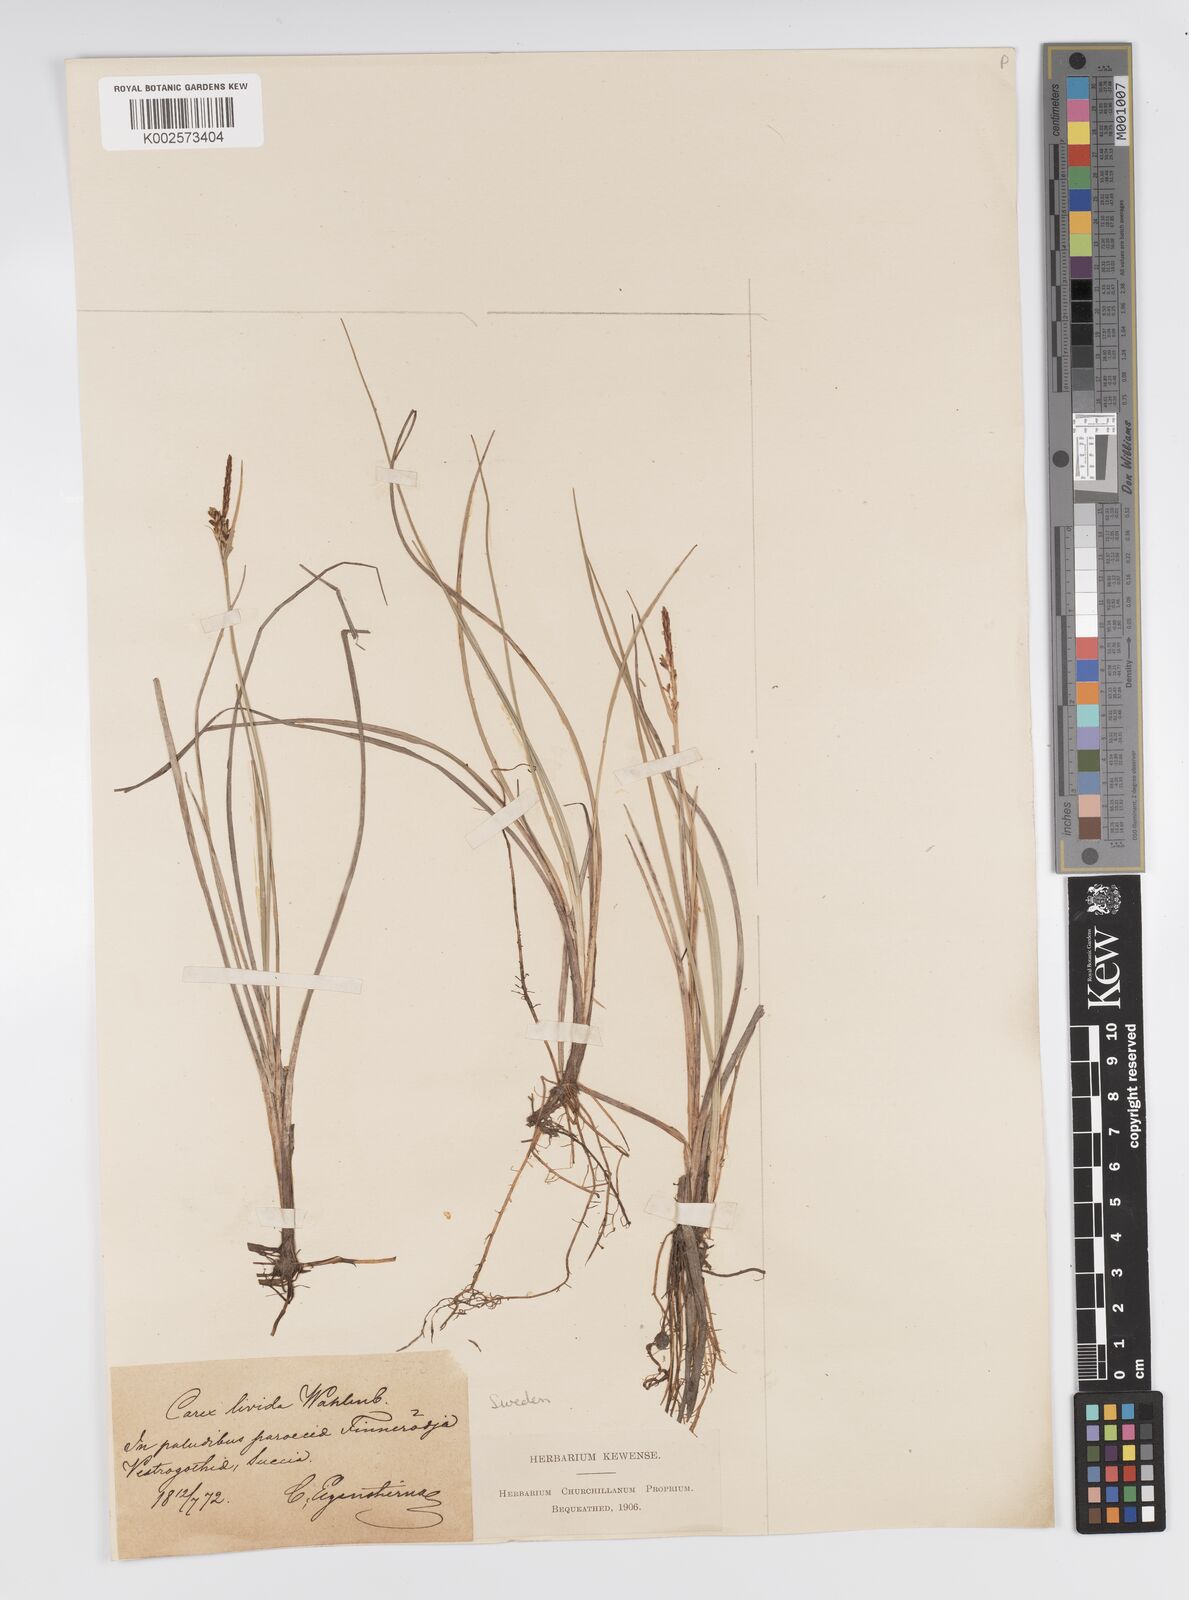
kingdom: Plantae
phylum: Tracheophyta
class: Liliopsida
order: Poales
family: Cyperaceae
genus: Carex
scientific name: Carex livida
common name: Livid sedge
